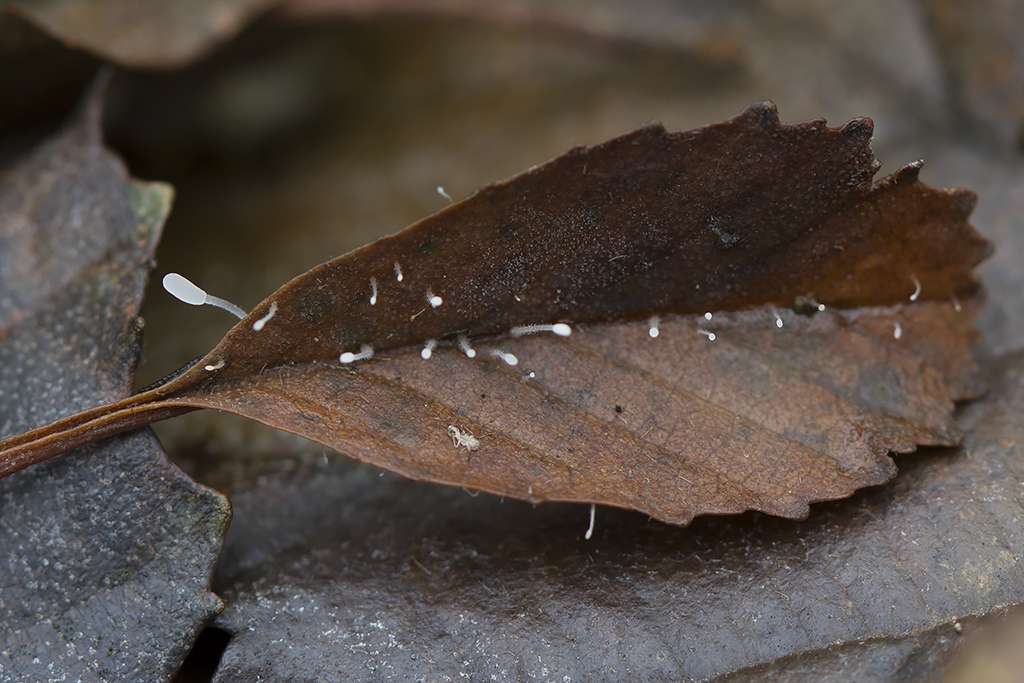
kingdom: Fungi
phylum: Basidiomycota
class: Agaricomycetes
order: Agaricales
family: Typhulaceae
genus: Typhula
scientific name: Typhula setipes
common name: liden trådkølle
